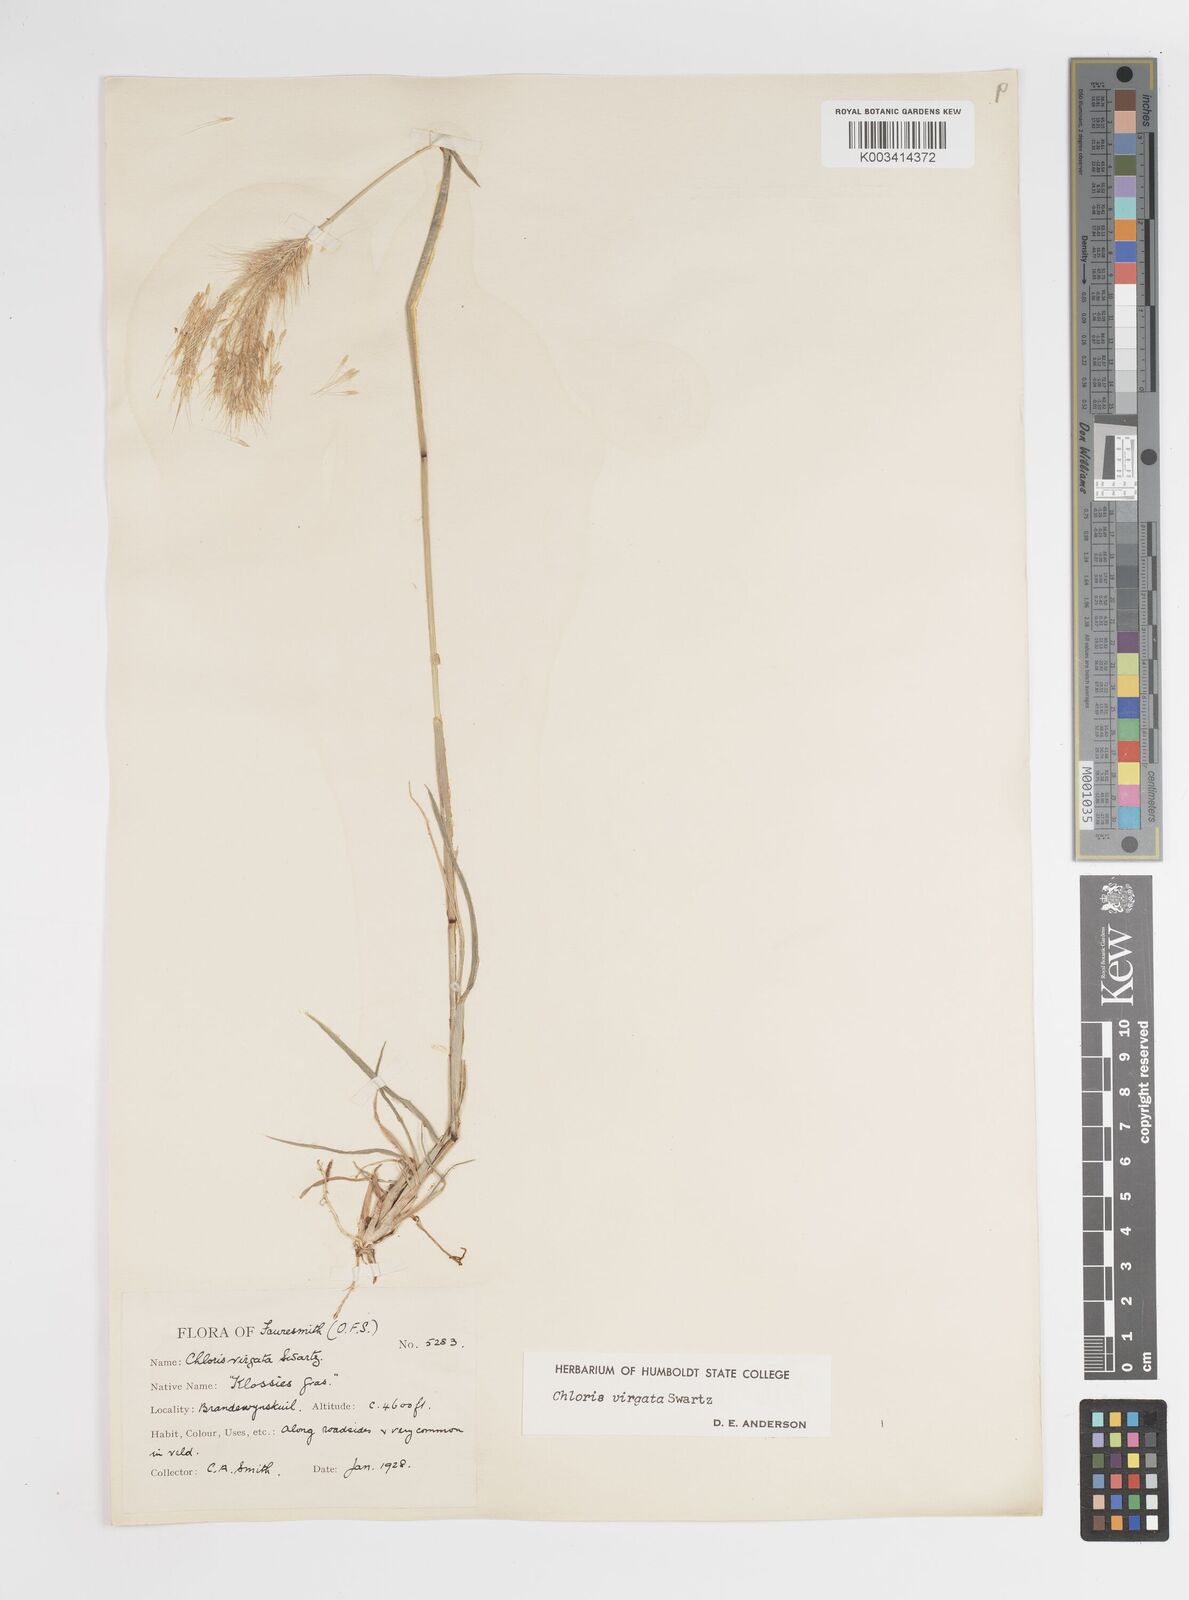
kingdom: Plantae
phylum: Tracheophyta
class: Liliopsida
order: Poales
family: Poaceae
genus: Chloris
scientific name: Chloris virgata
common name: Feathery rhodes-grass
